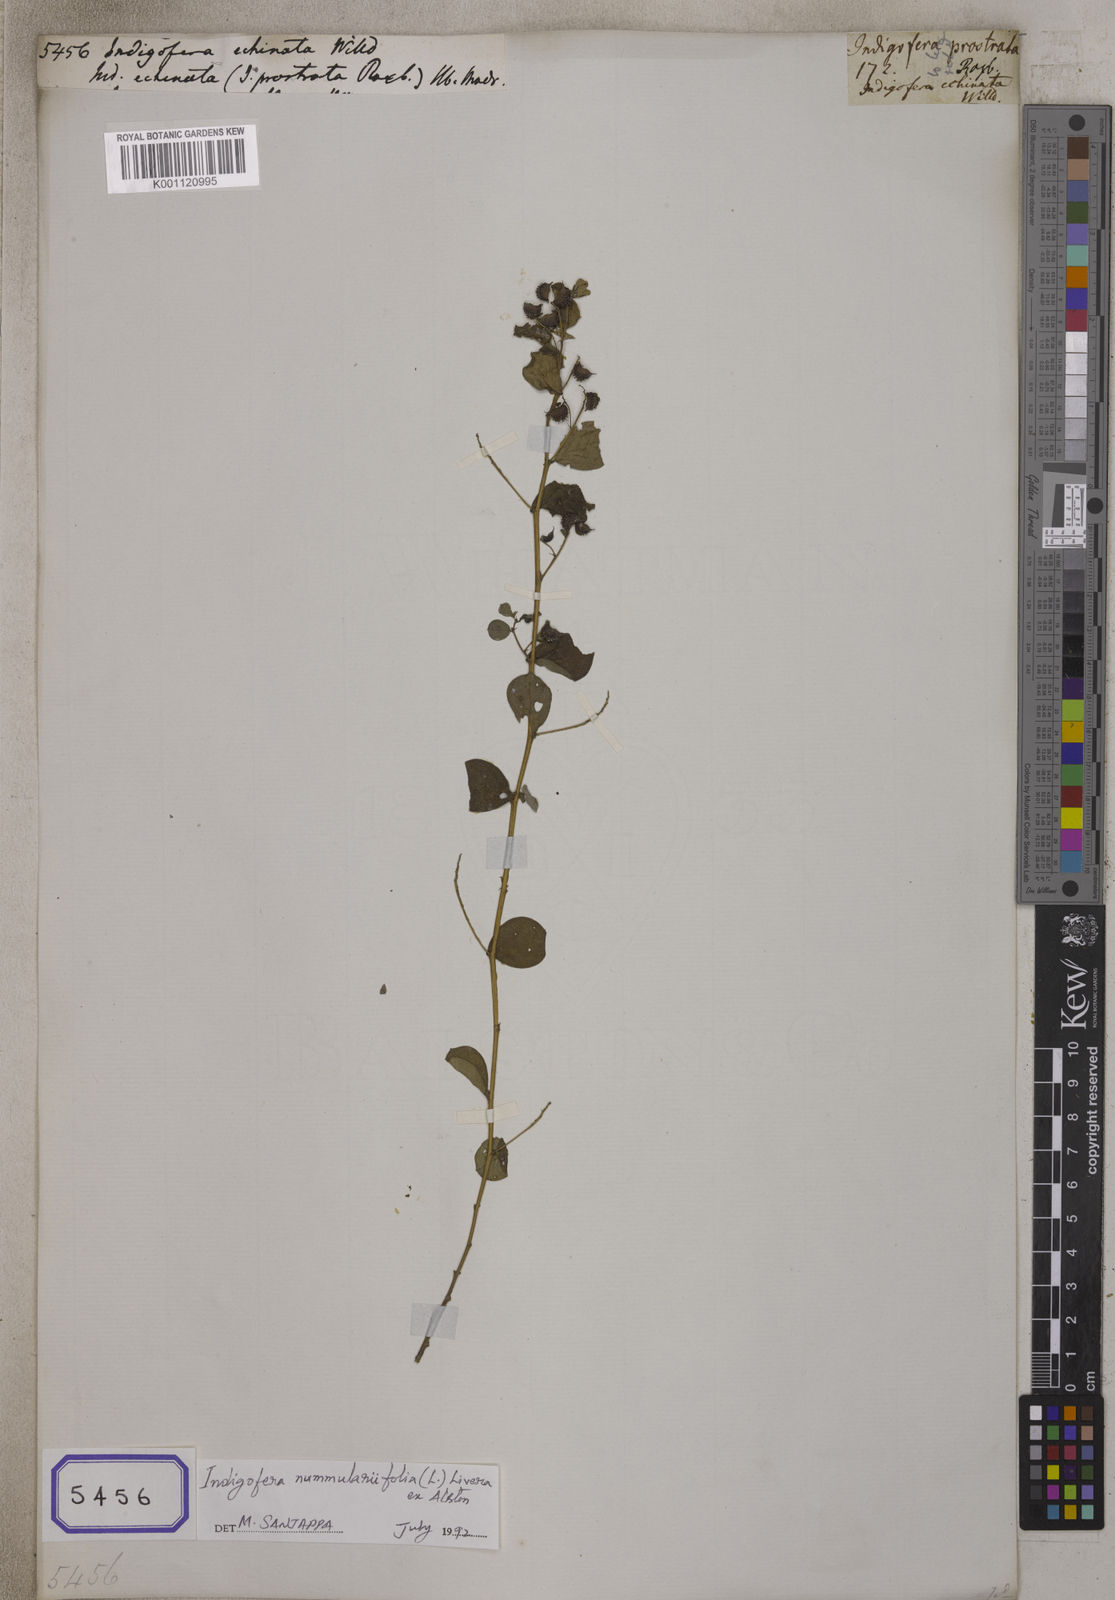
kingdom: Plantae
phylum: Tracheophyta
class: Magnoliopsida
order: Fabales
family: Fabaceae
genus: Indigofera
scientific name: Indigofera nummulariifolia
